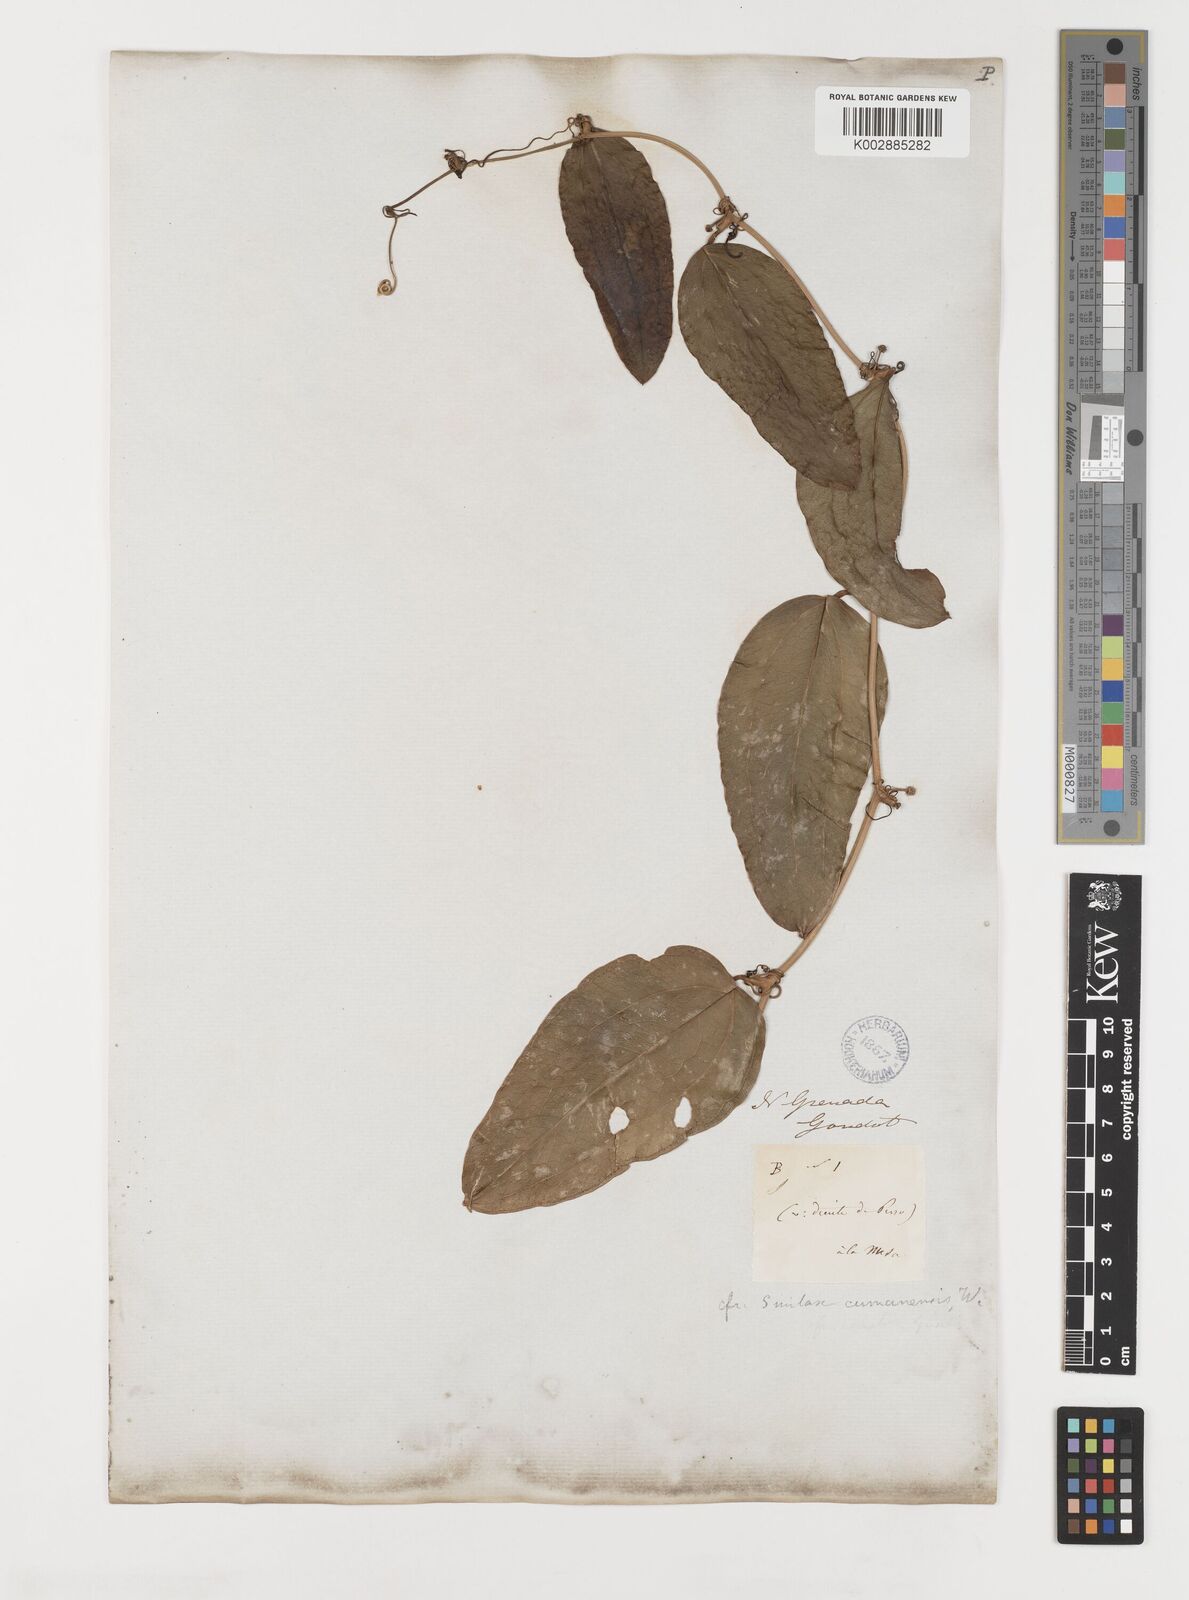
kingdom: Plantae
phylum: Tracheophyta
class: Liliopsida
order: Liliales
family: Smilacaceae
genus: Smilax
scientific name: Smilax oblongata
